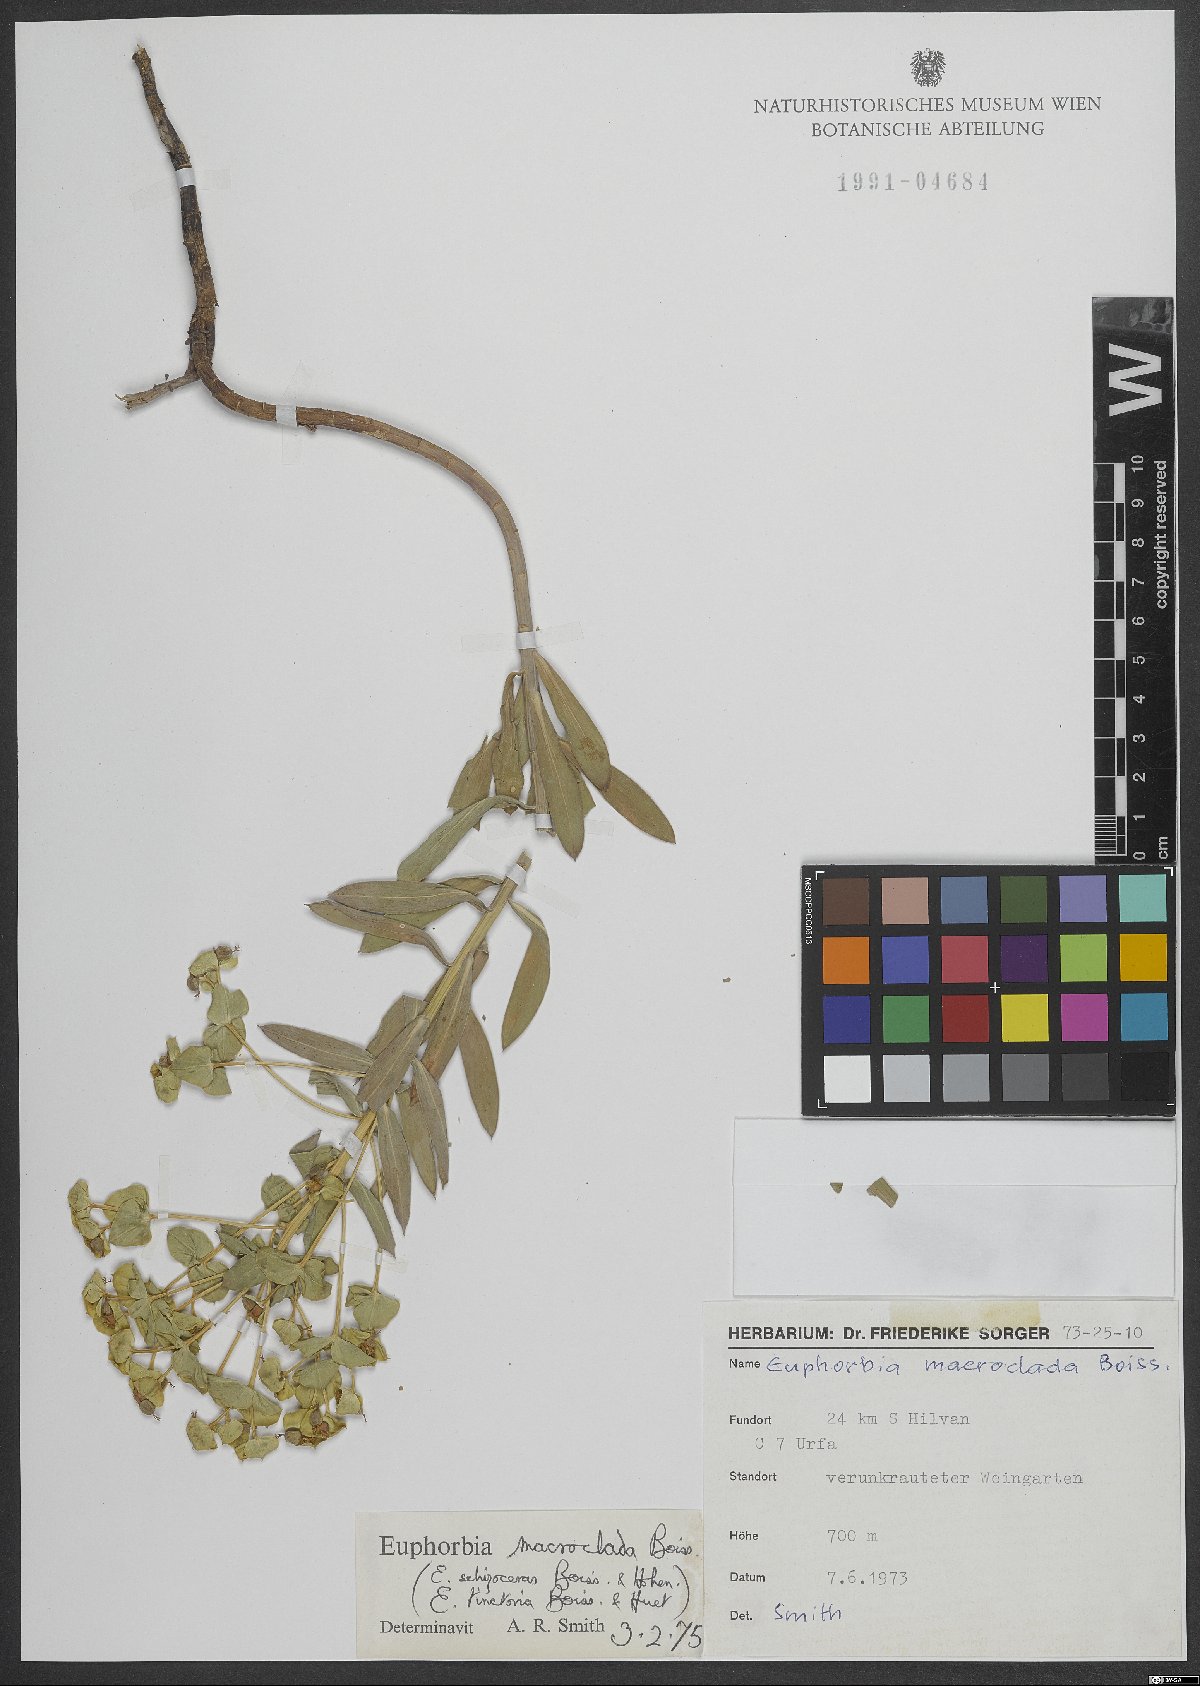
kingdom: Plantae
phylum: Tracheophyta
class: Magnoliopsida
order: Malpighiales
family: Euphorbiaceae
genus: Euphorbia
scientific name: Euphorbia macroclada
